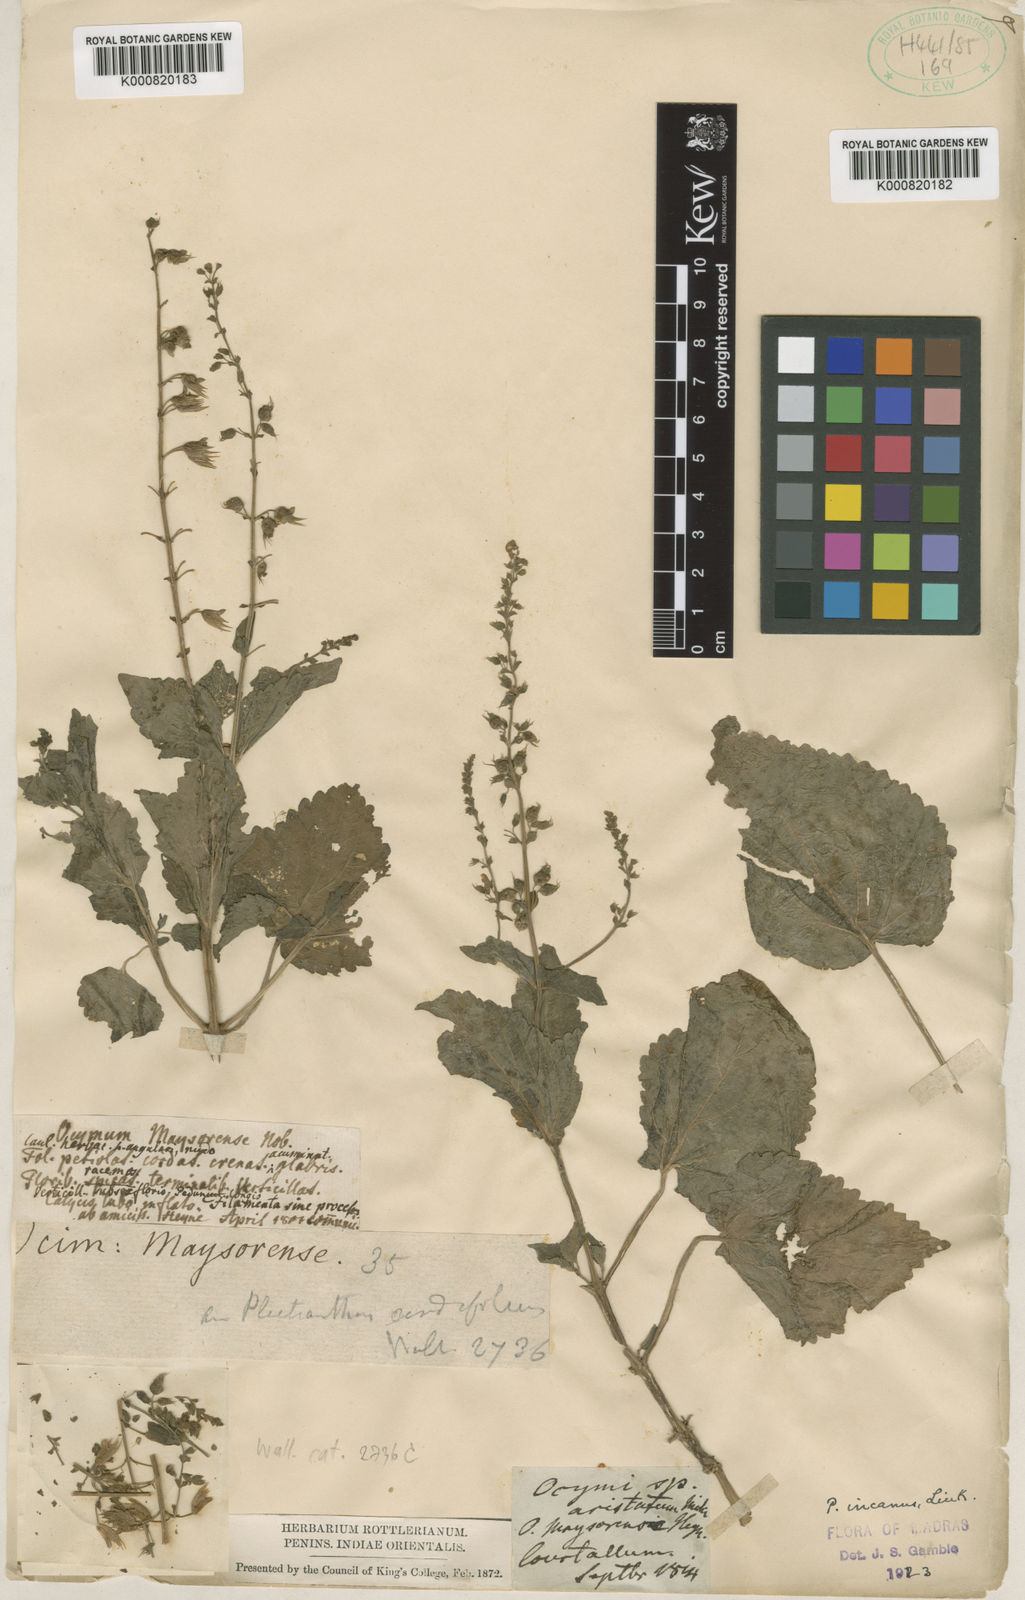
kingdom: Plantae
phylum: Tracheophyta
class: Magnoliopsida
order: Lamiales
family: Lamiaceae
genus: Equilabium
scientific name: Equilabium molle
